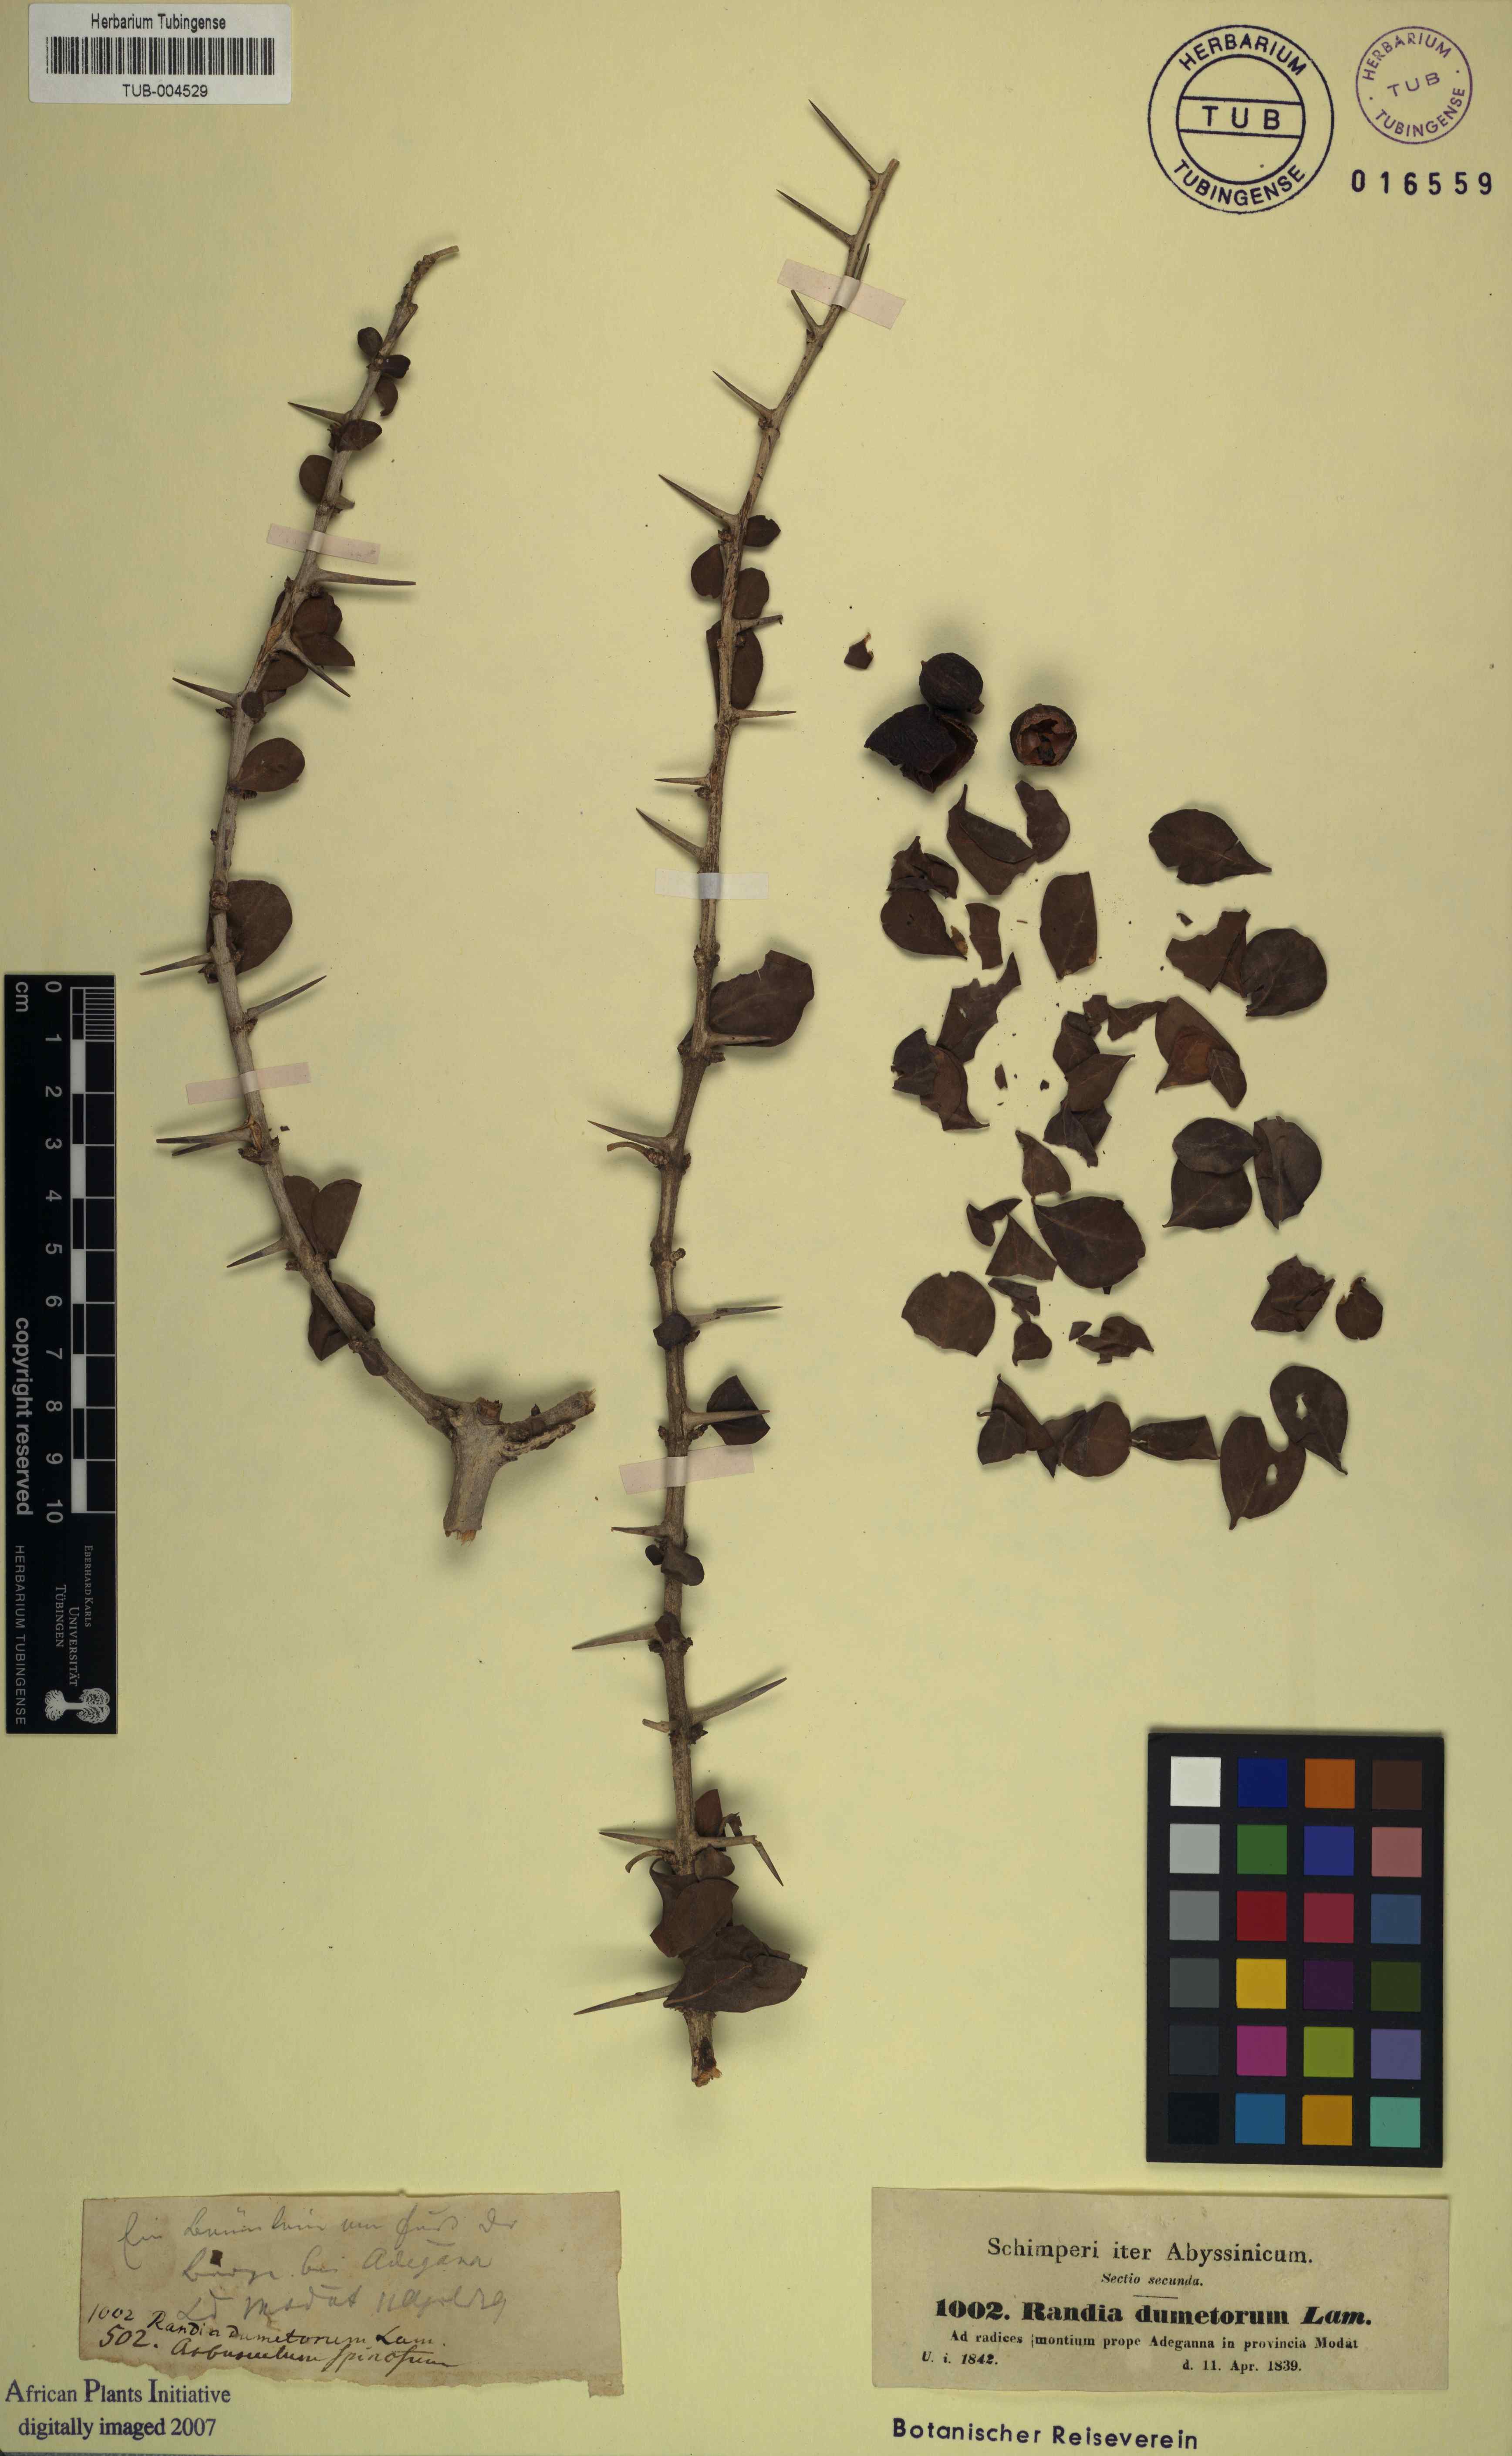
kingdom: Plantae
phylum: Tracheophyta
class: Magnoliopsida
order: Gentianales
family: Rubiaceae
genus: Catunaregam
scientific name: Catunaregam spinosa
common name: Emetic-nut
